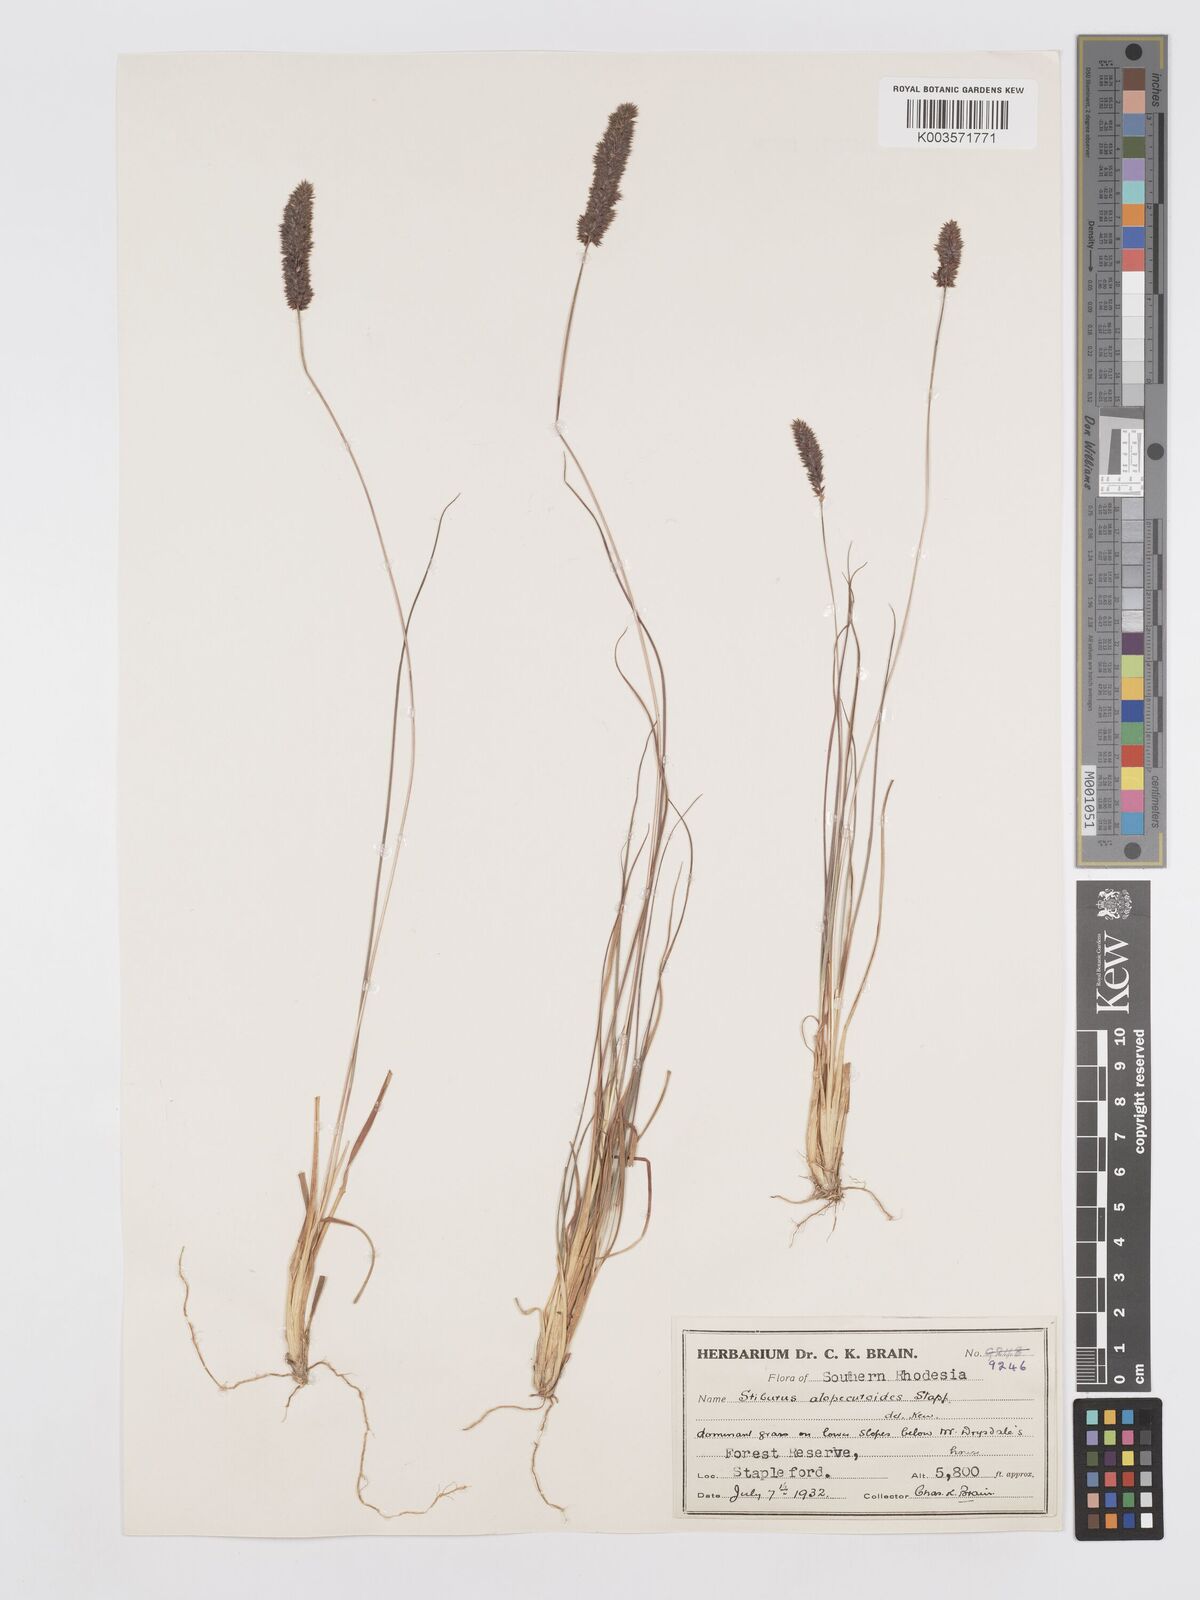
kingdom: Plantae
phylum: Tracheophyta
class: Liliopsida
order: Poales
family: Poaceae
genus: Stiburus
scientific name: Stiburus alopecuroides
